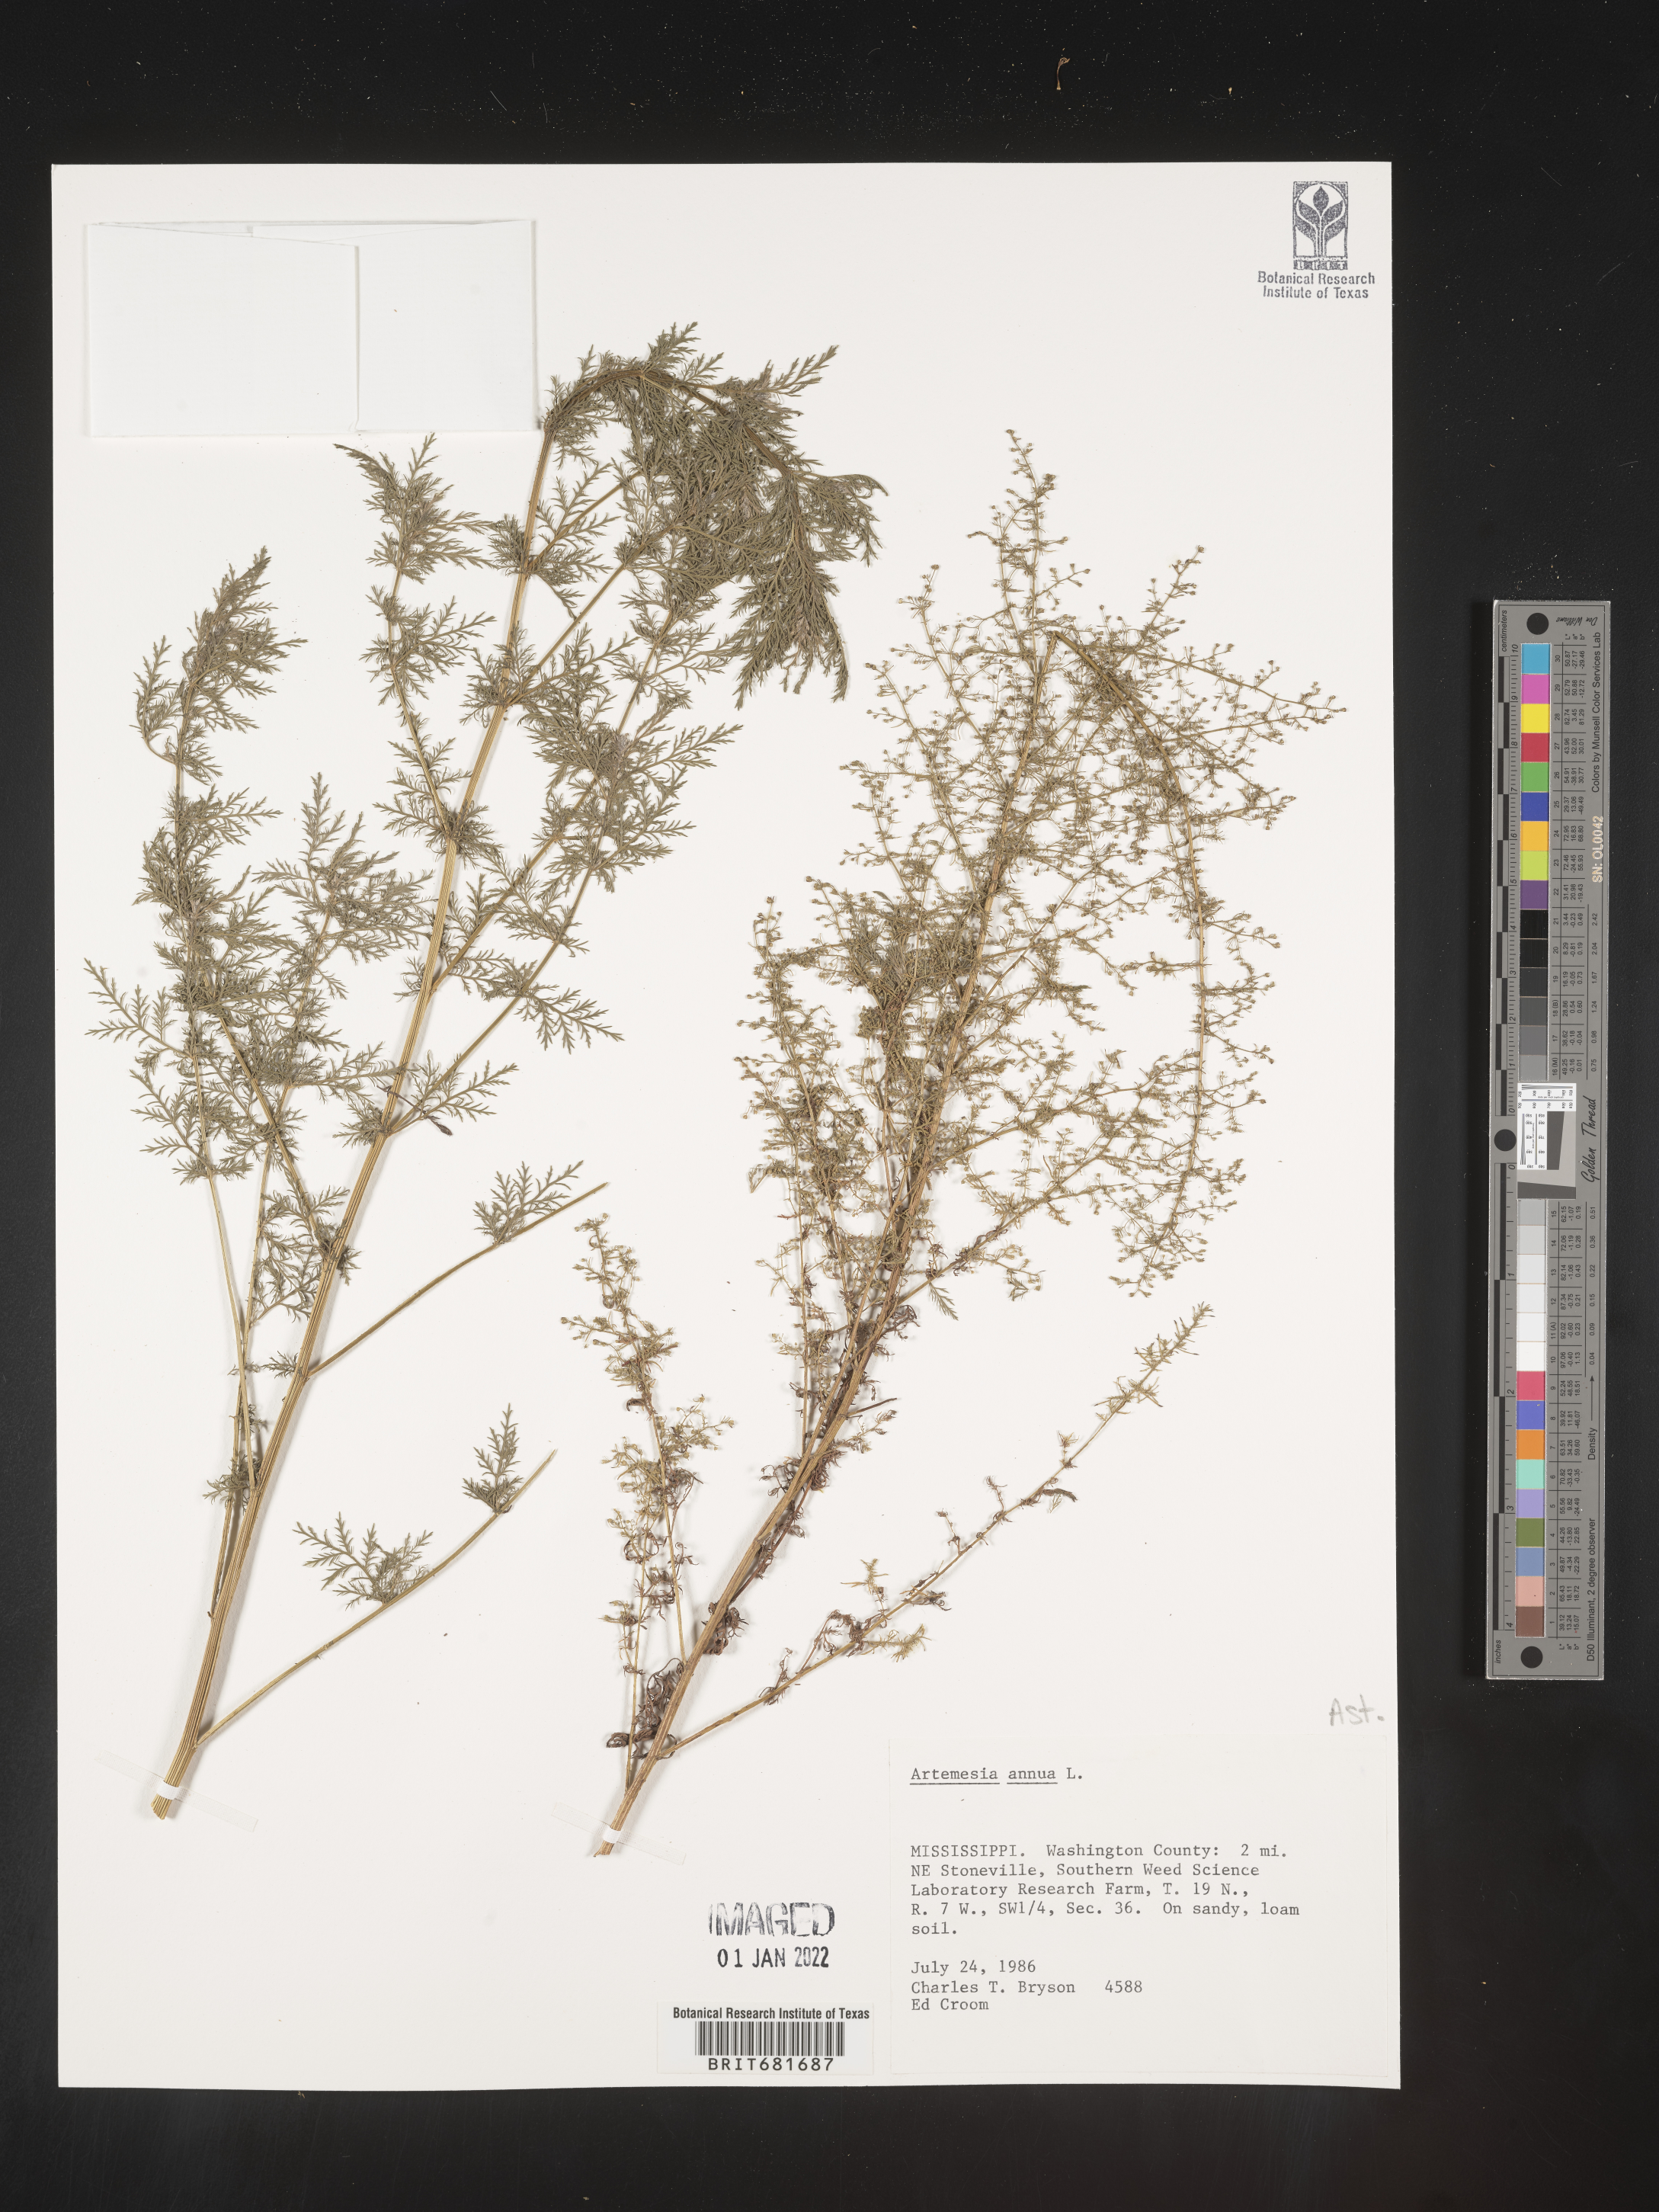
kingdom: Plantae
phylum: Tracheophyta
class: Magnoliopsida
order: Asterales
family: Asteraceae
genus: Artemisia
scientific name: Artemisia annua
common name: Sweet sagewort
